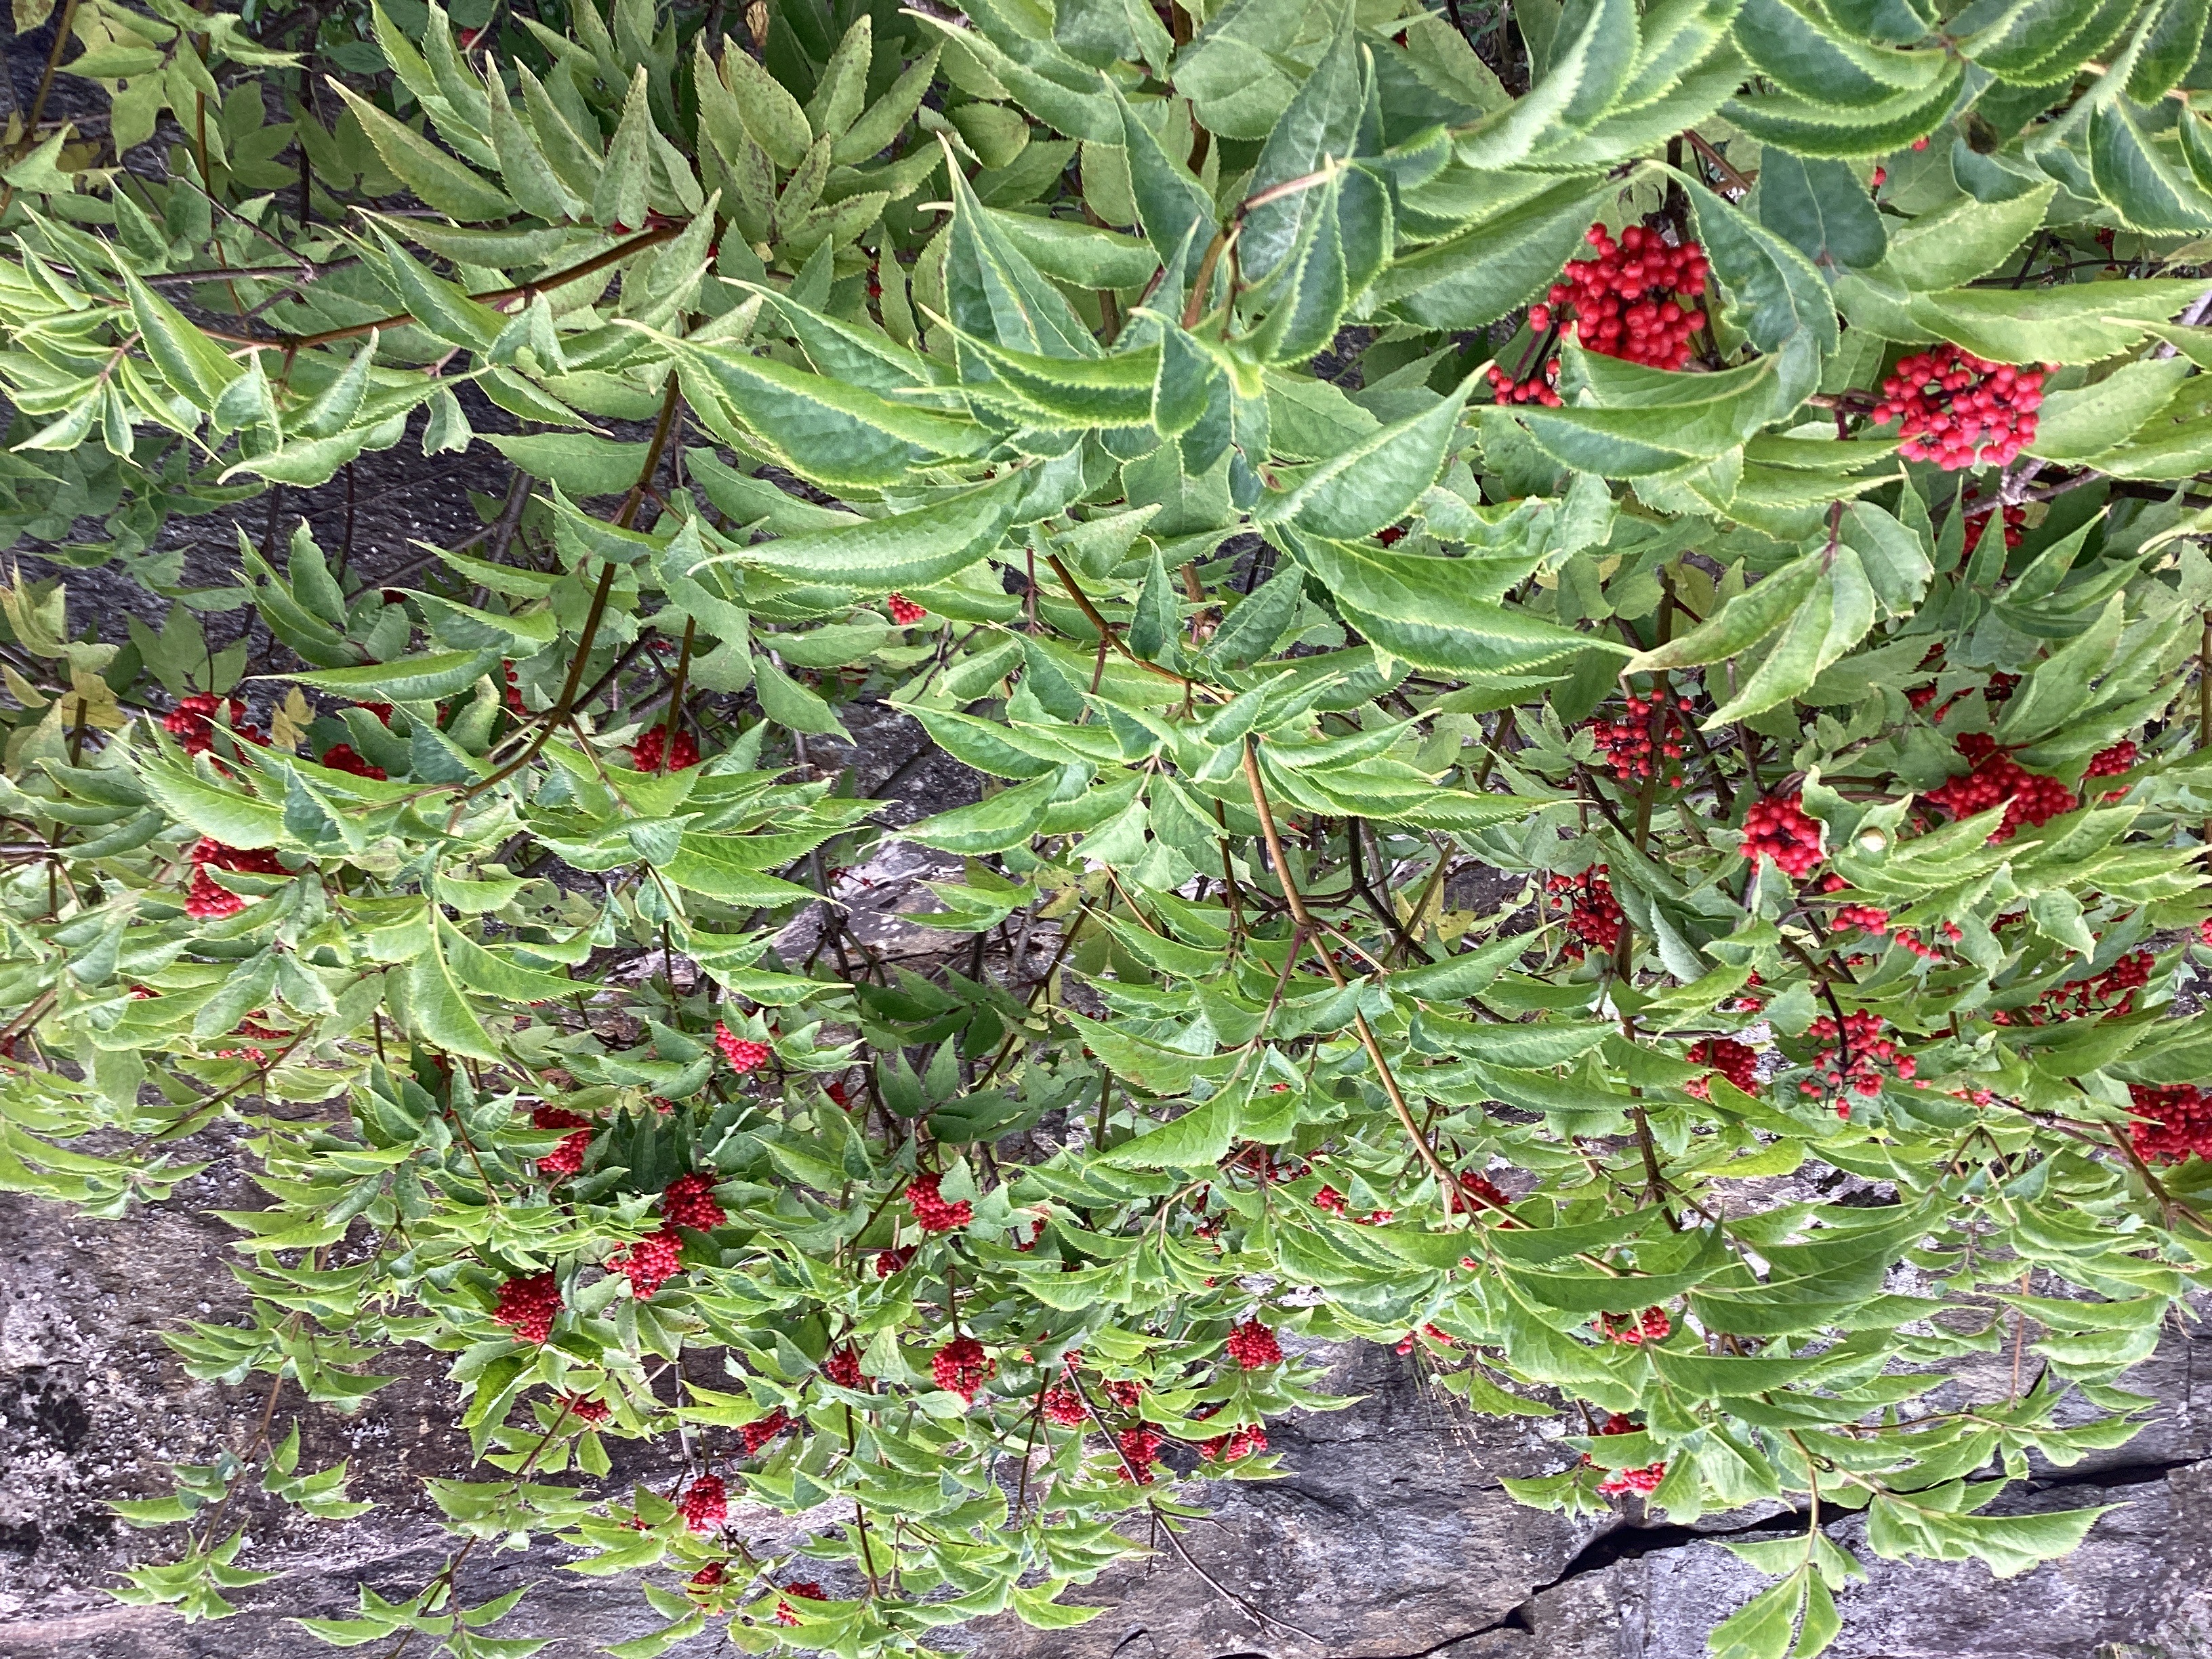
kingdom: Plantae
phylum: Tracheophyta
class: Magnoliopsida
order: Dipsacales
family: Viburnaceae
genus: Sambucus
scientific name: Sambucus racemosa
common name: rødhyll
